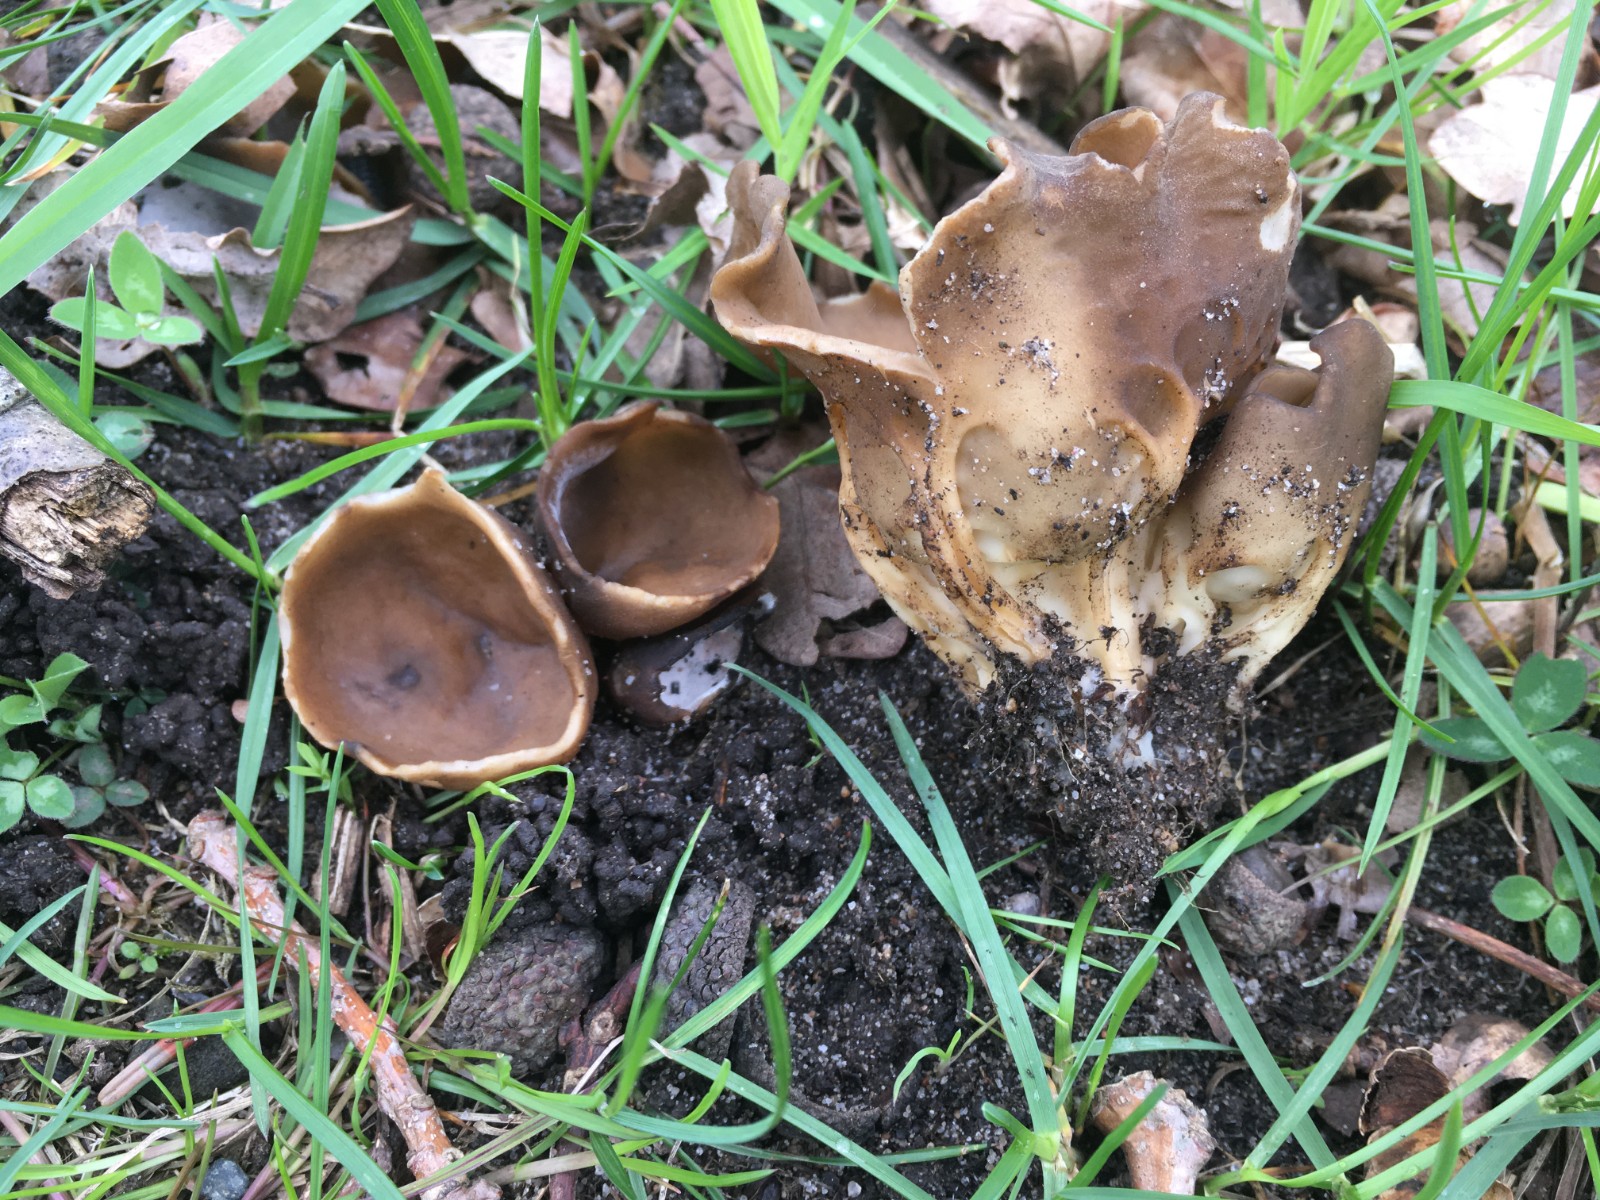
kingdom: Fungi
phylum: Ascomycota
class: Pezizomycetes
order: Pezizales
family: Helvellaceae
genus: Helvella
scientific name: Helvella acetabulum
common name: pokal-foldhat
